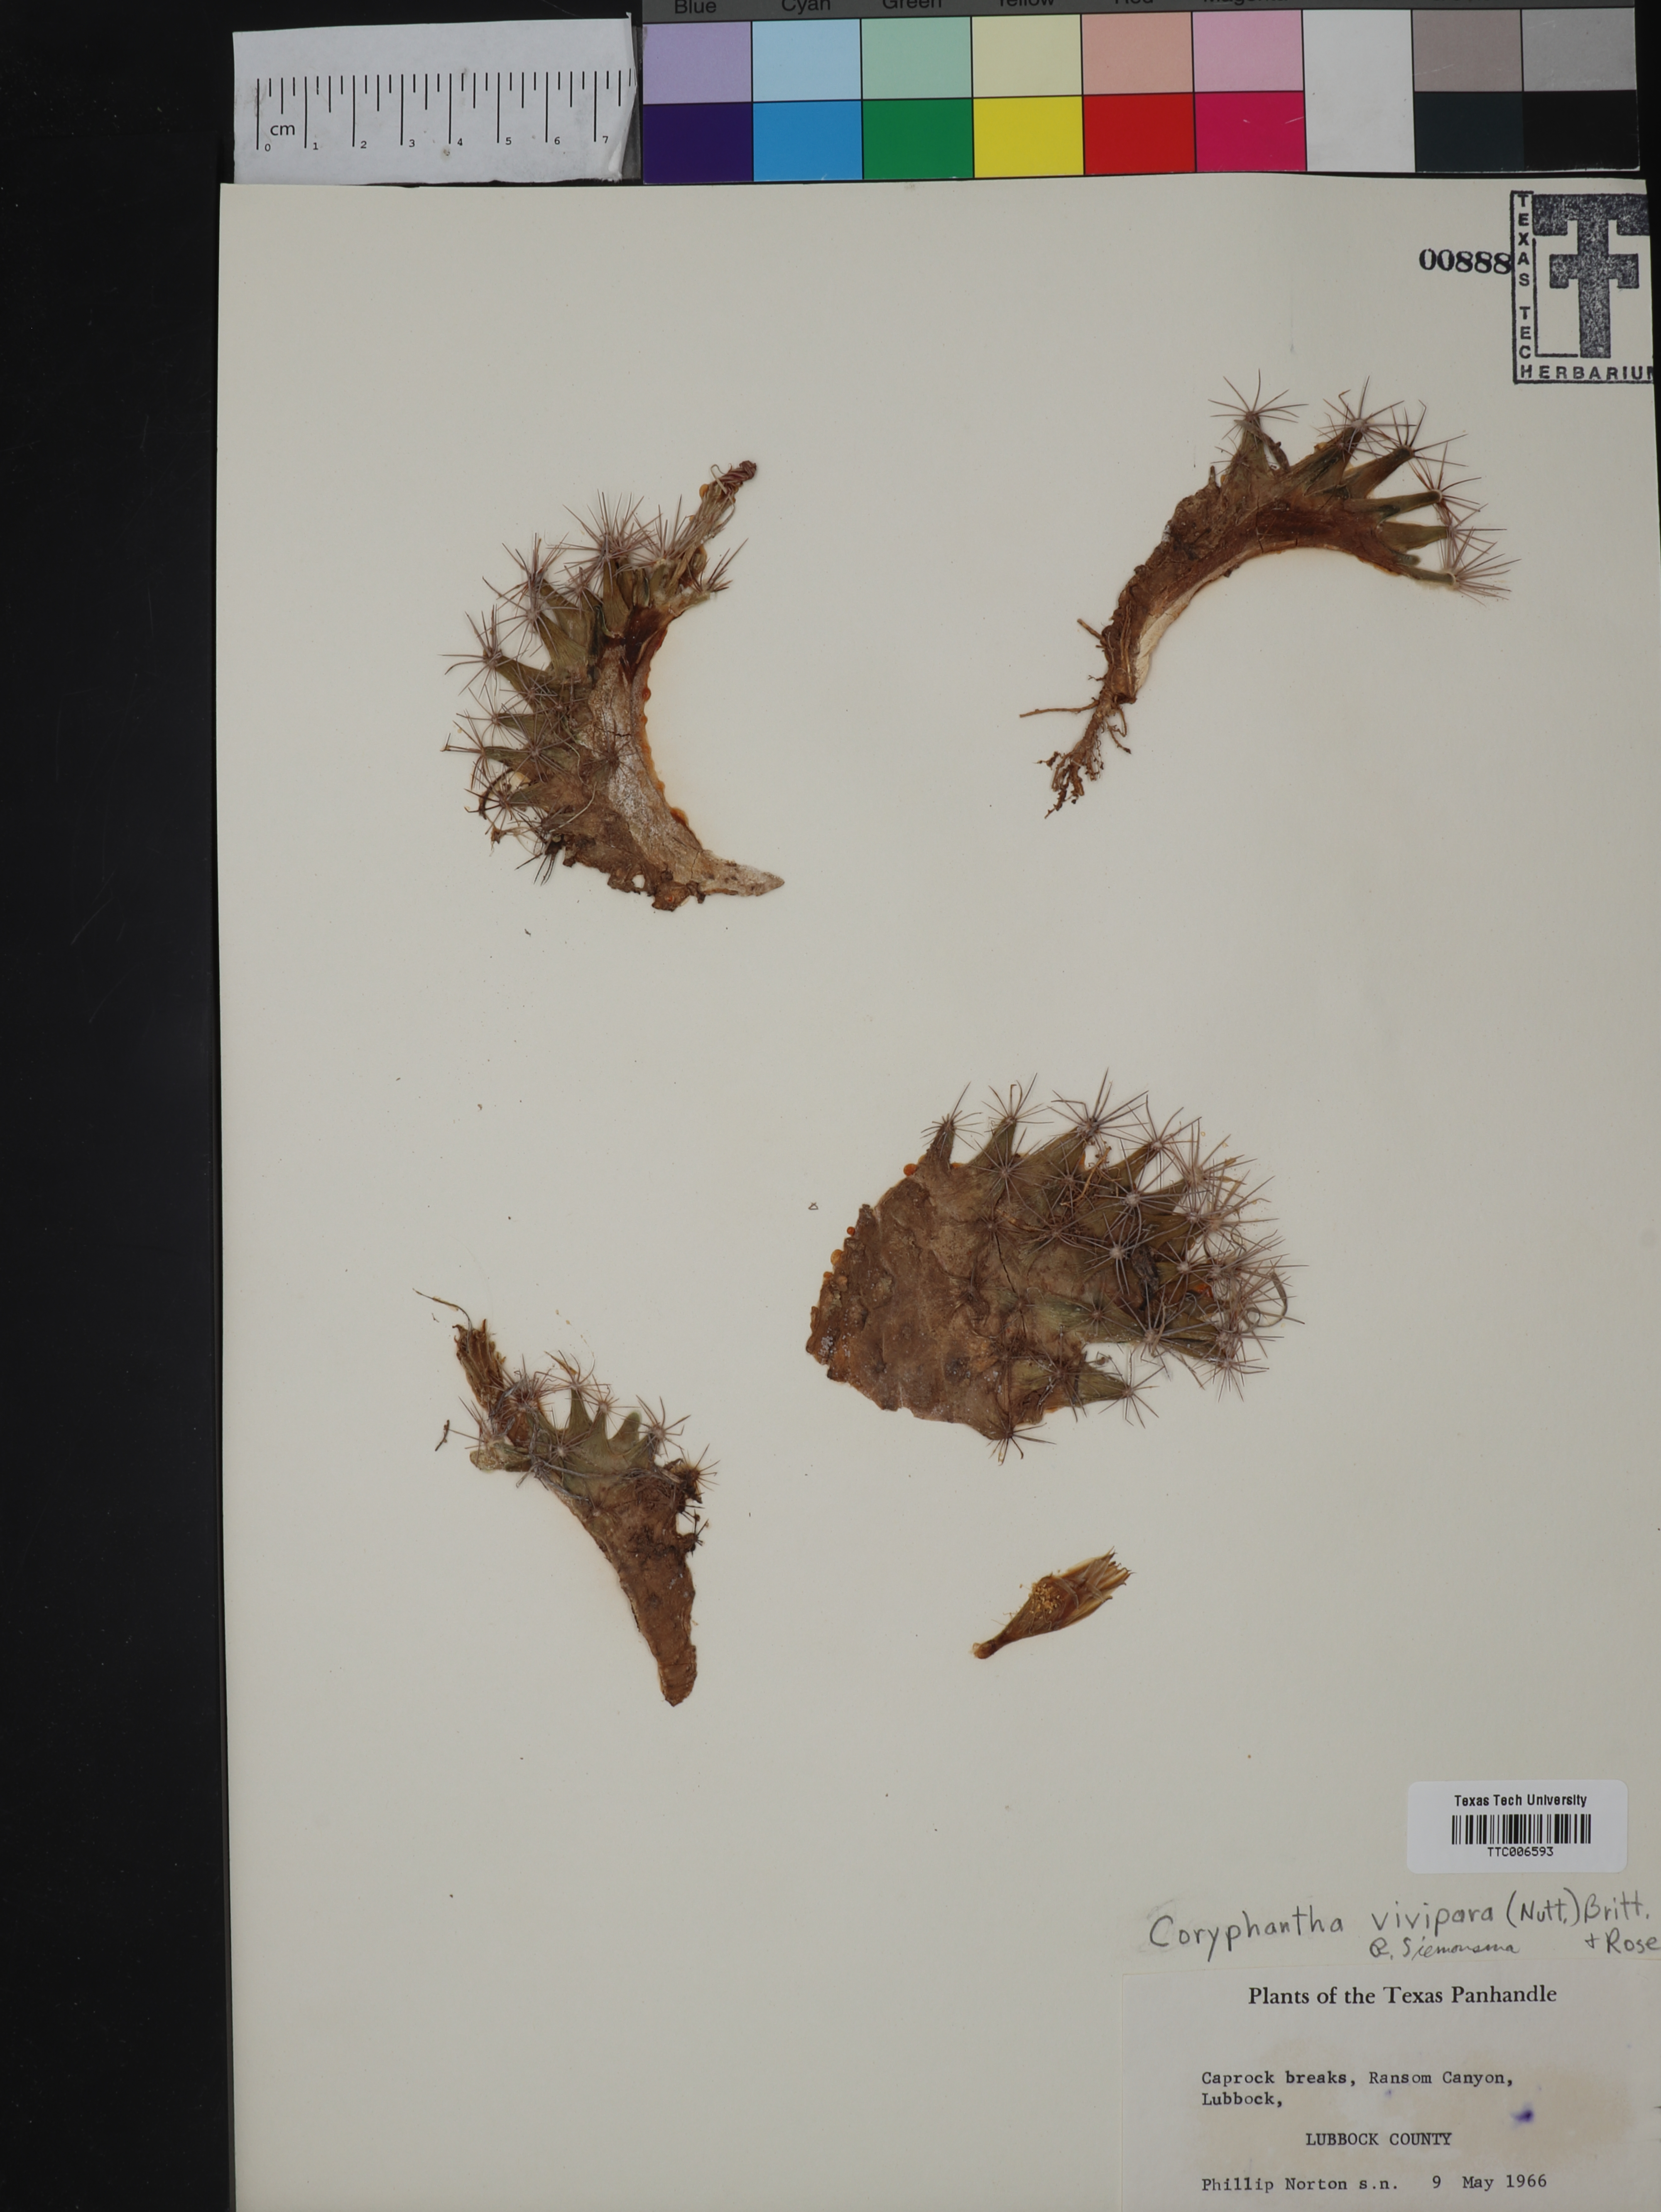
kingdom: Plantae
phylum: Tracheophyta
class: Magnoliopsida
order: Caryophyllales
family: Cactaceae
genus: Pelecyphora
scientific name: Pelecyphora vivipara
